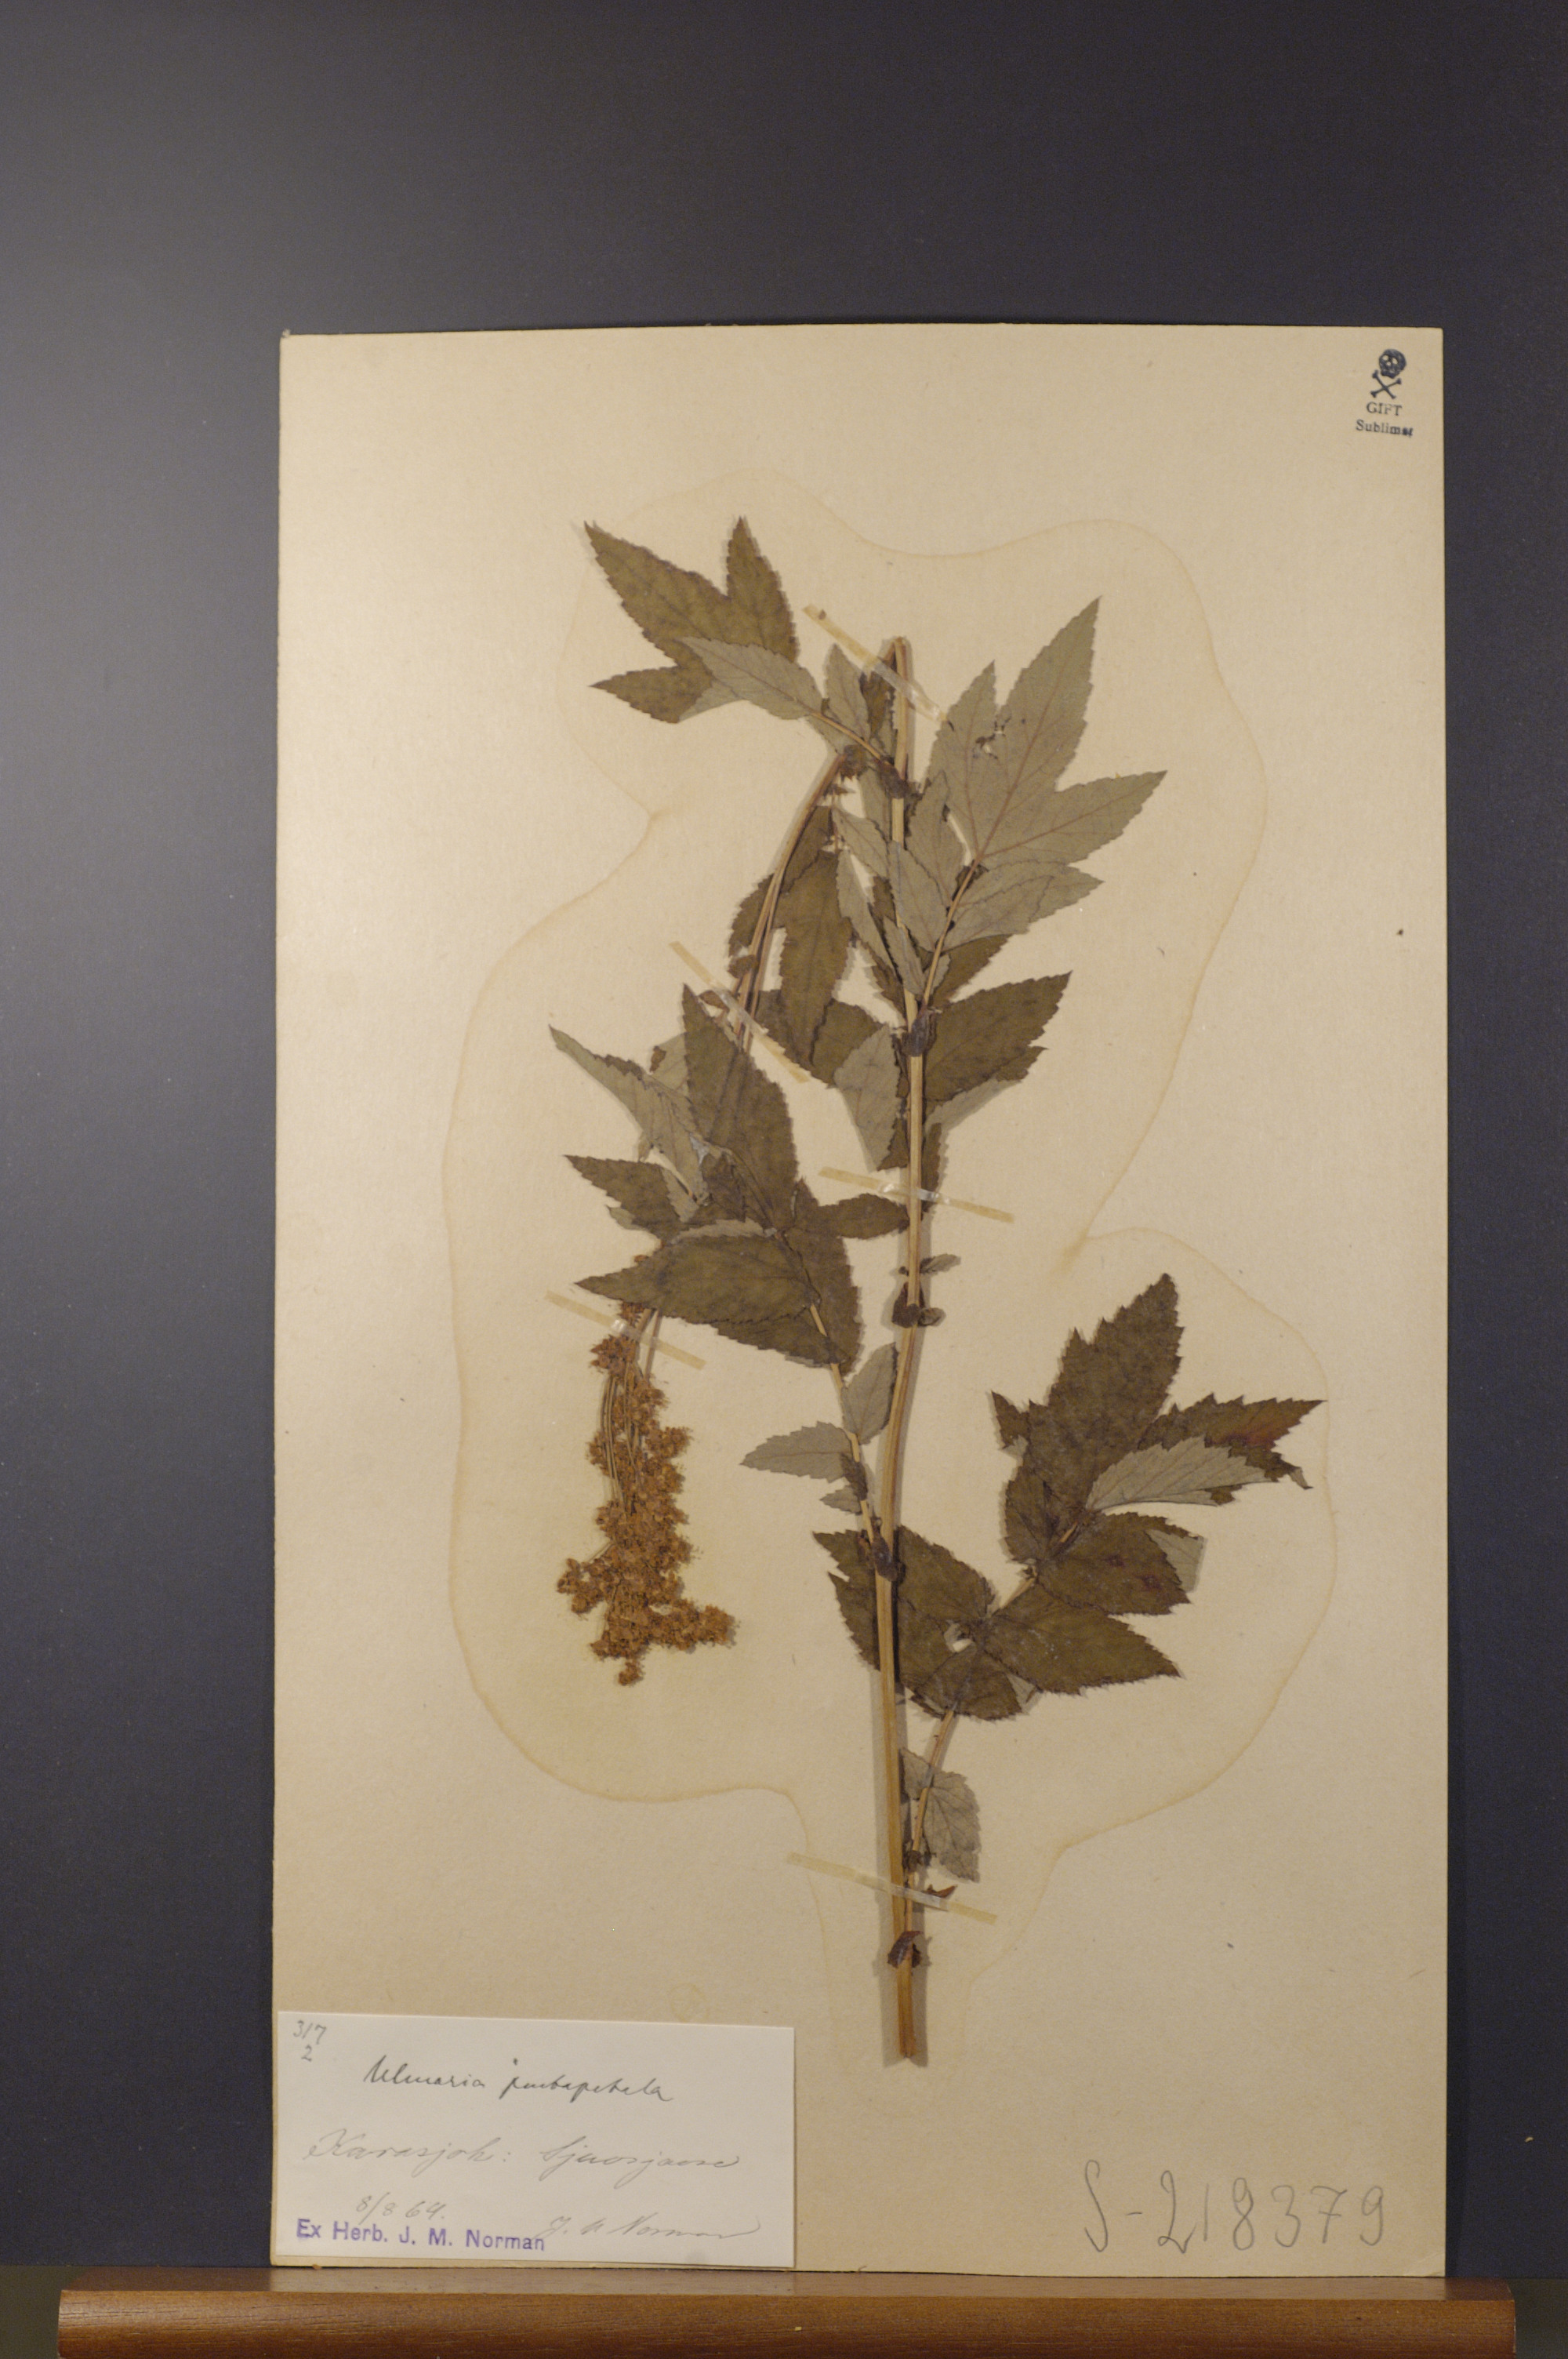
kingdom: Plantae
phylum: Tracheophyta
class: Magnoliopsida
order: Rosales
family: Rosaceae
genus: Filipendula
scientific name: Filipendula ulmaria
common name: Meadowsweet
